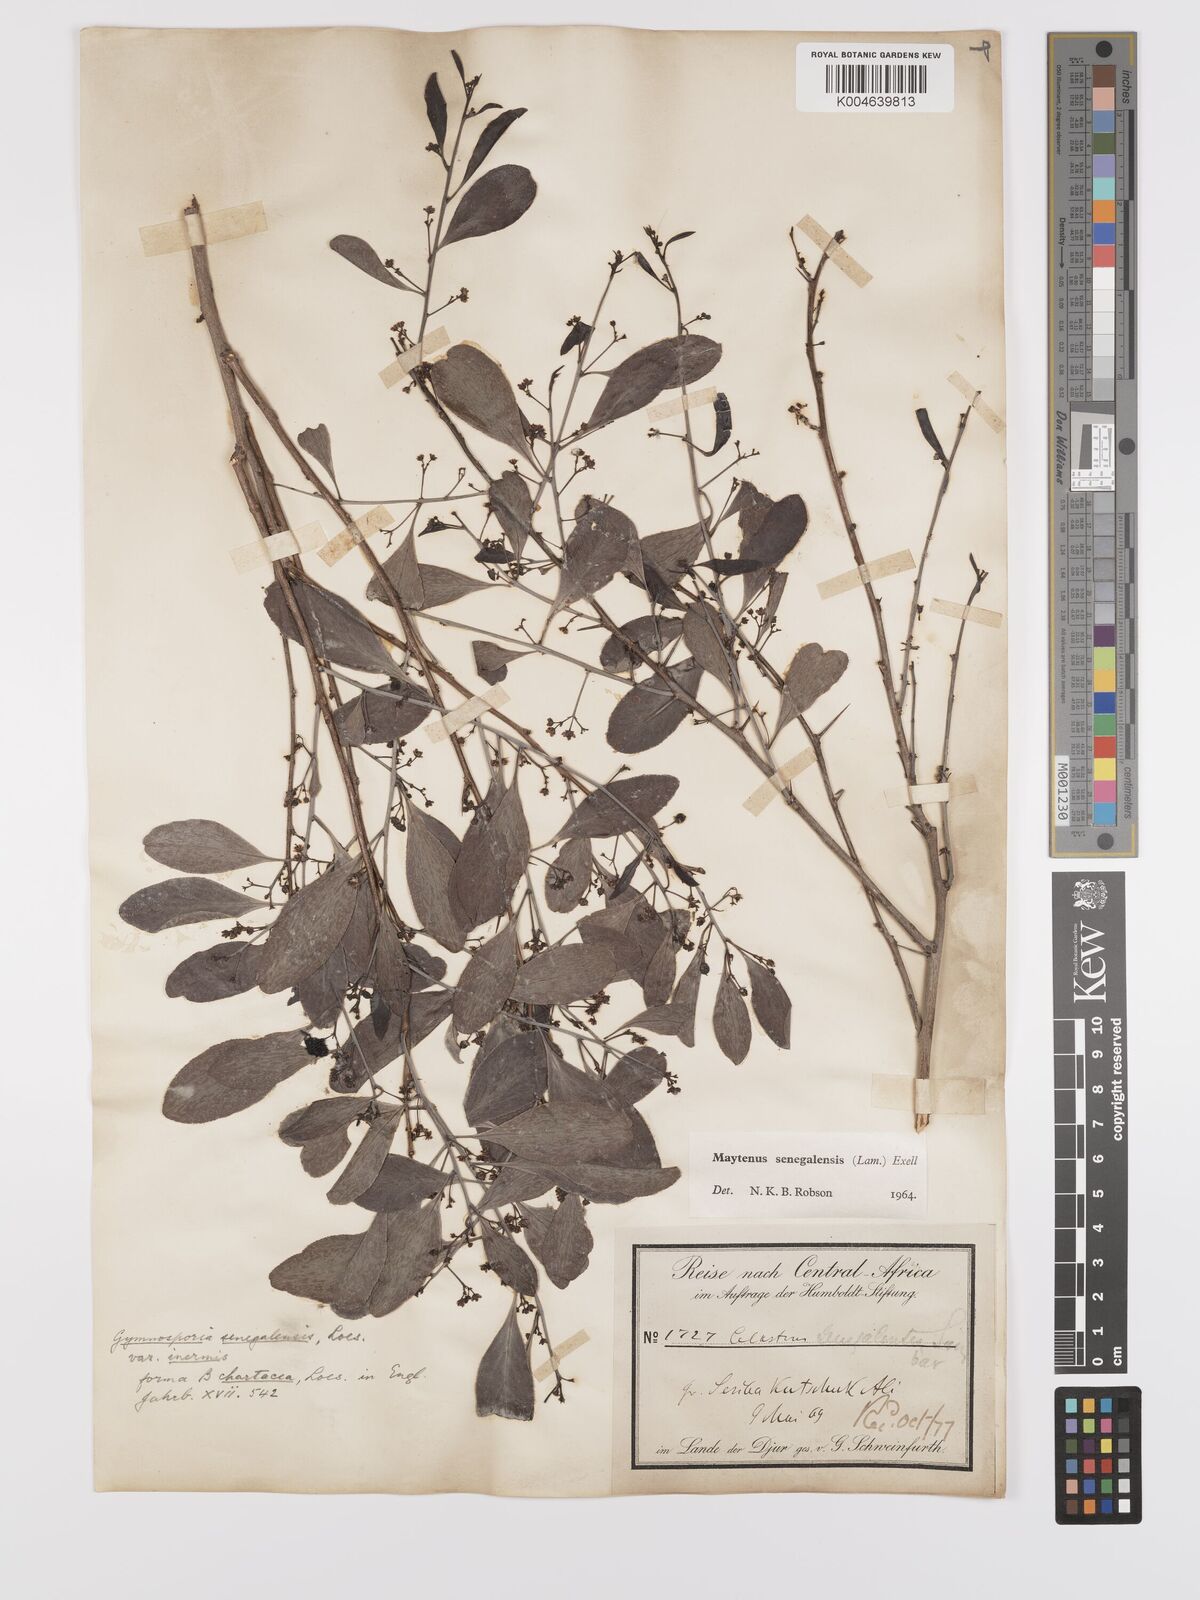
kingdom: Plantae
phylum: Tracheophyta
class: Magnoliopsida
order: Celastrales
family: Celastraceae
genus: Gymnosporia
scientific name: Gymnosporia senegalensis
